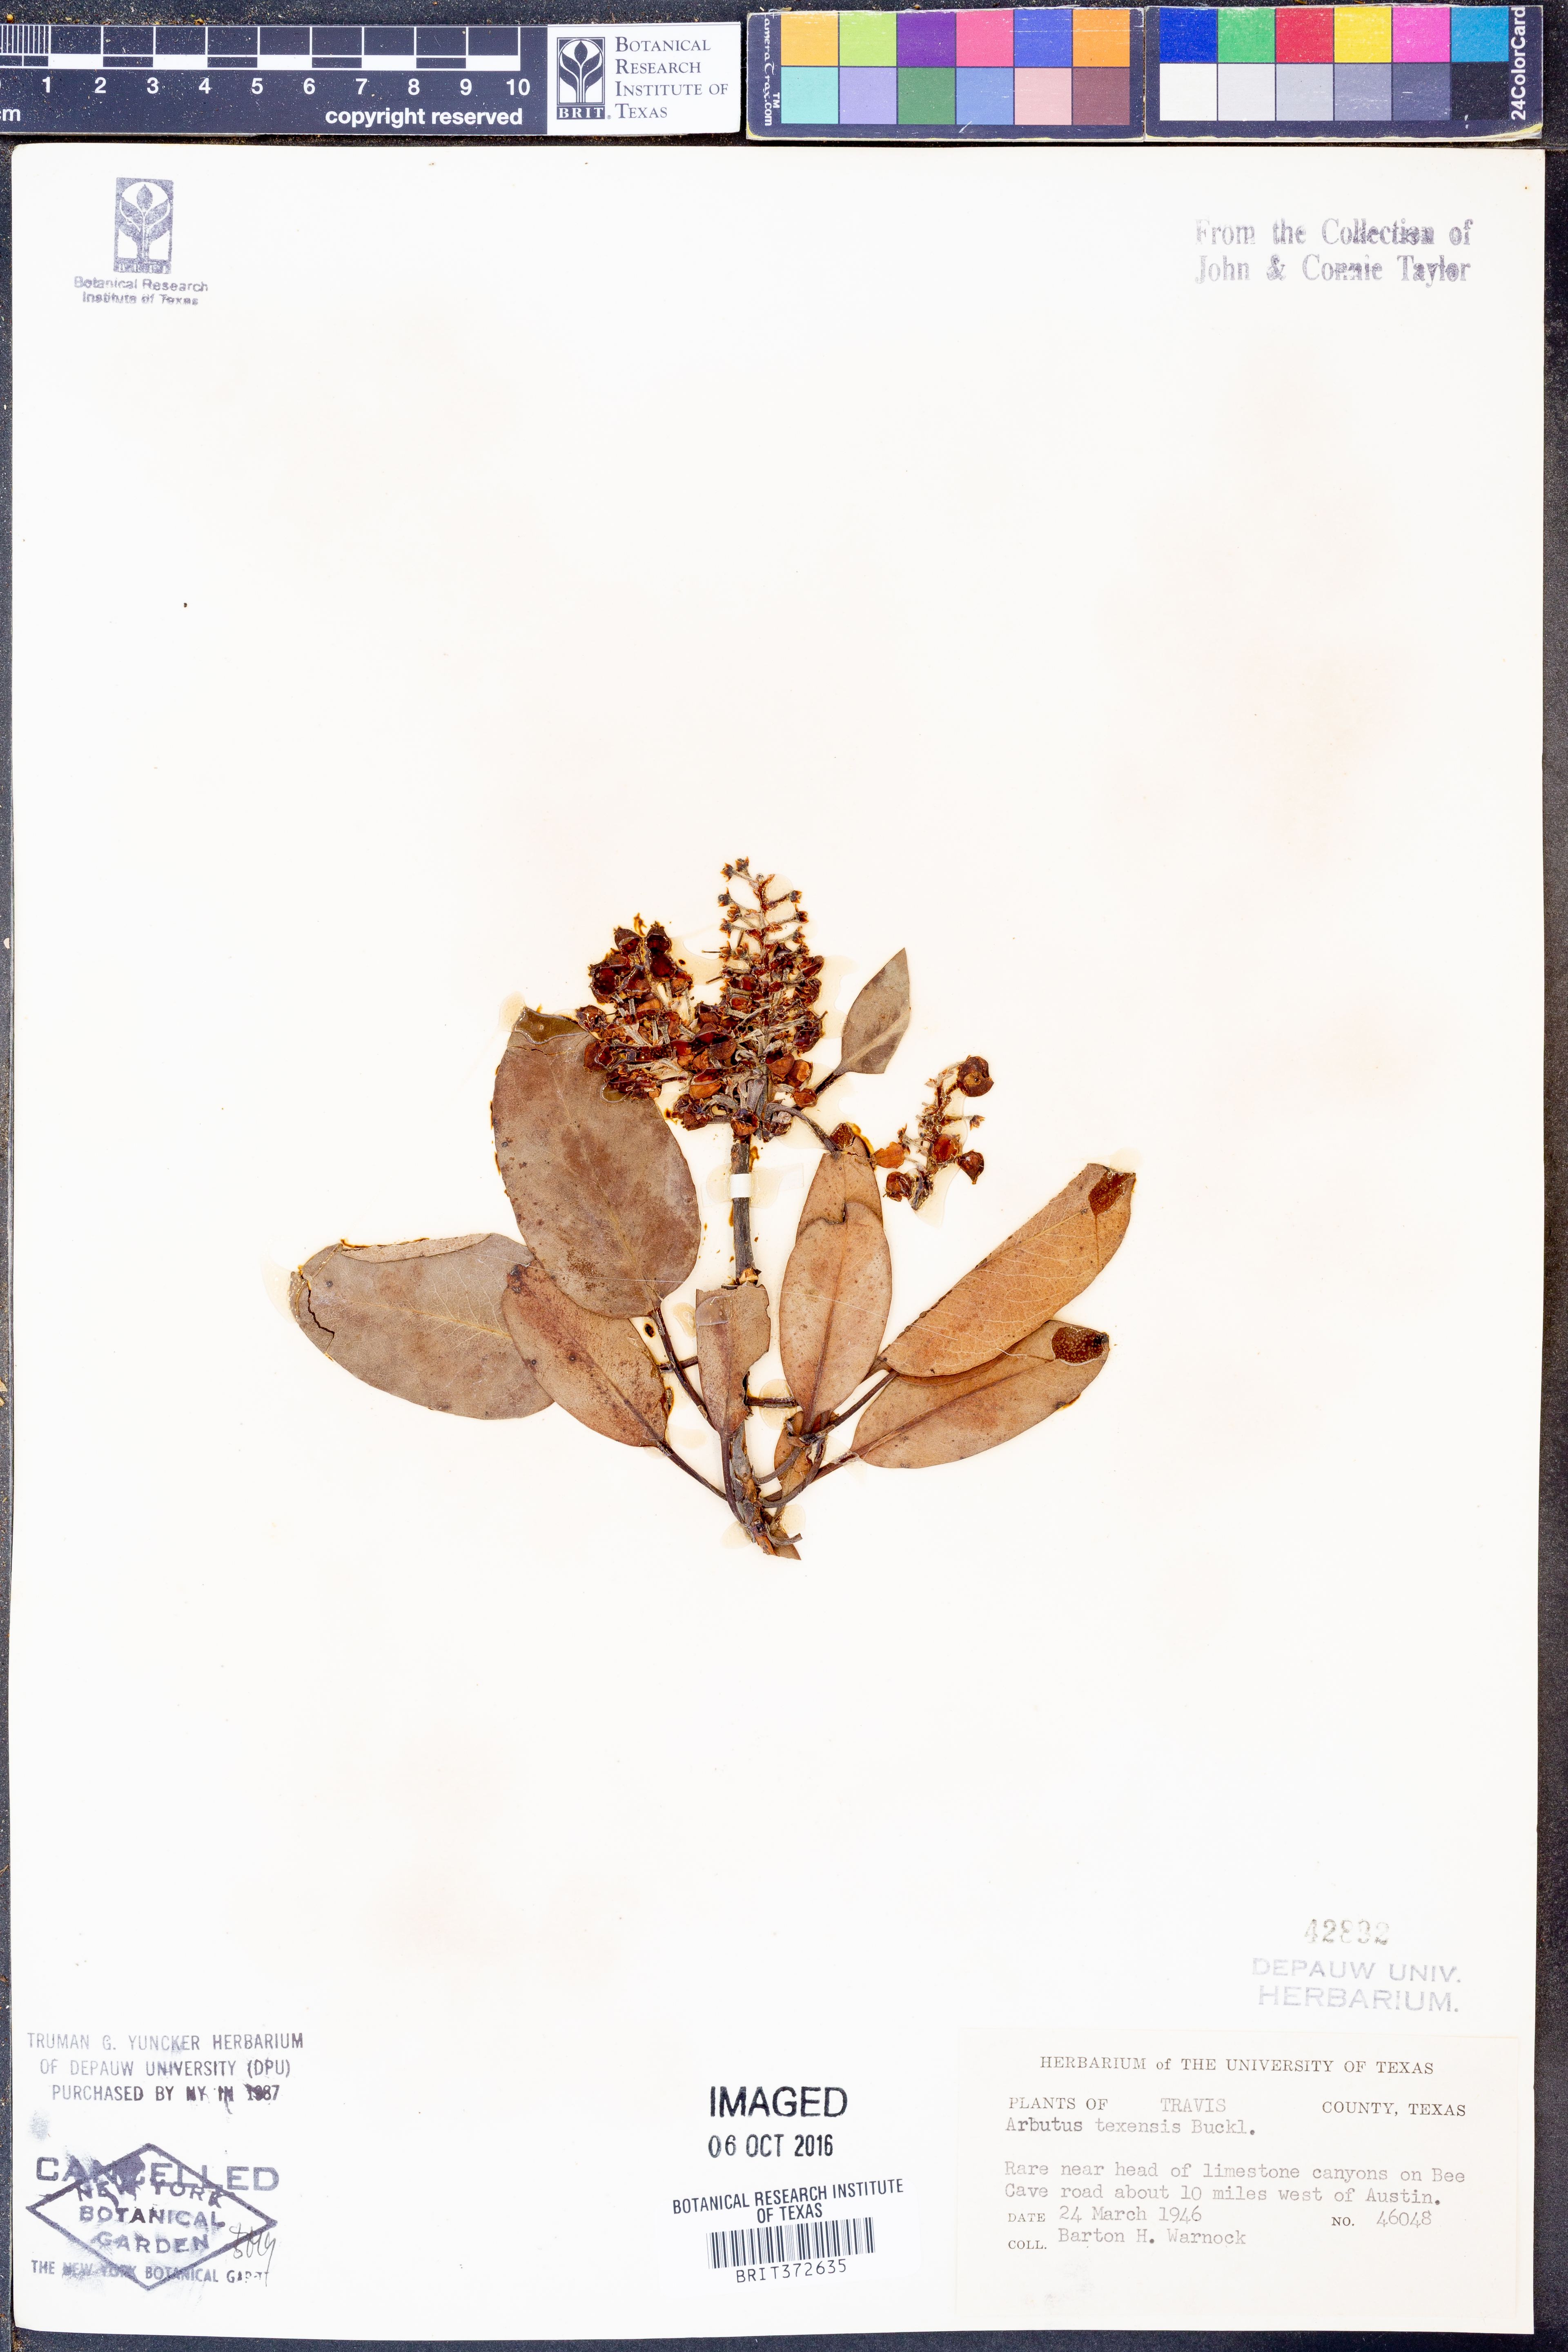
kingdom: Plantae
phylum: Tracheophyta
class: Magnoliopsida
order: Ericales
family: Ericaceae
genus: Arbutus
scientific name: Arbutus xalapensis
